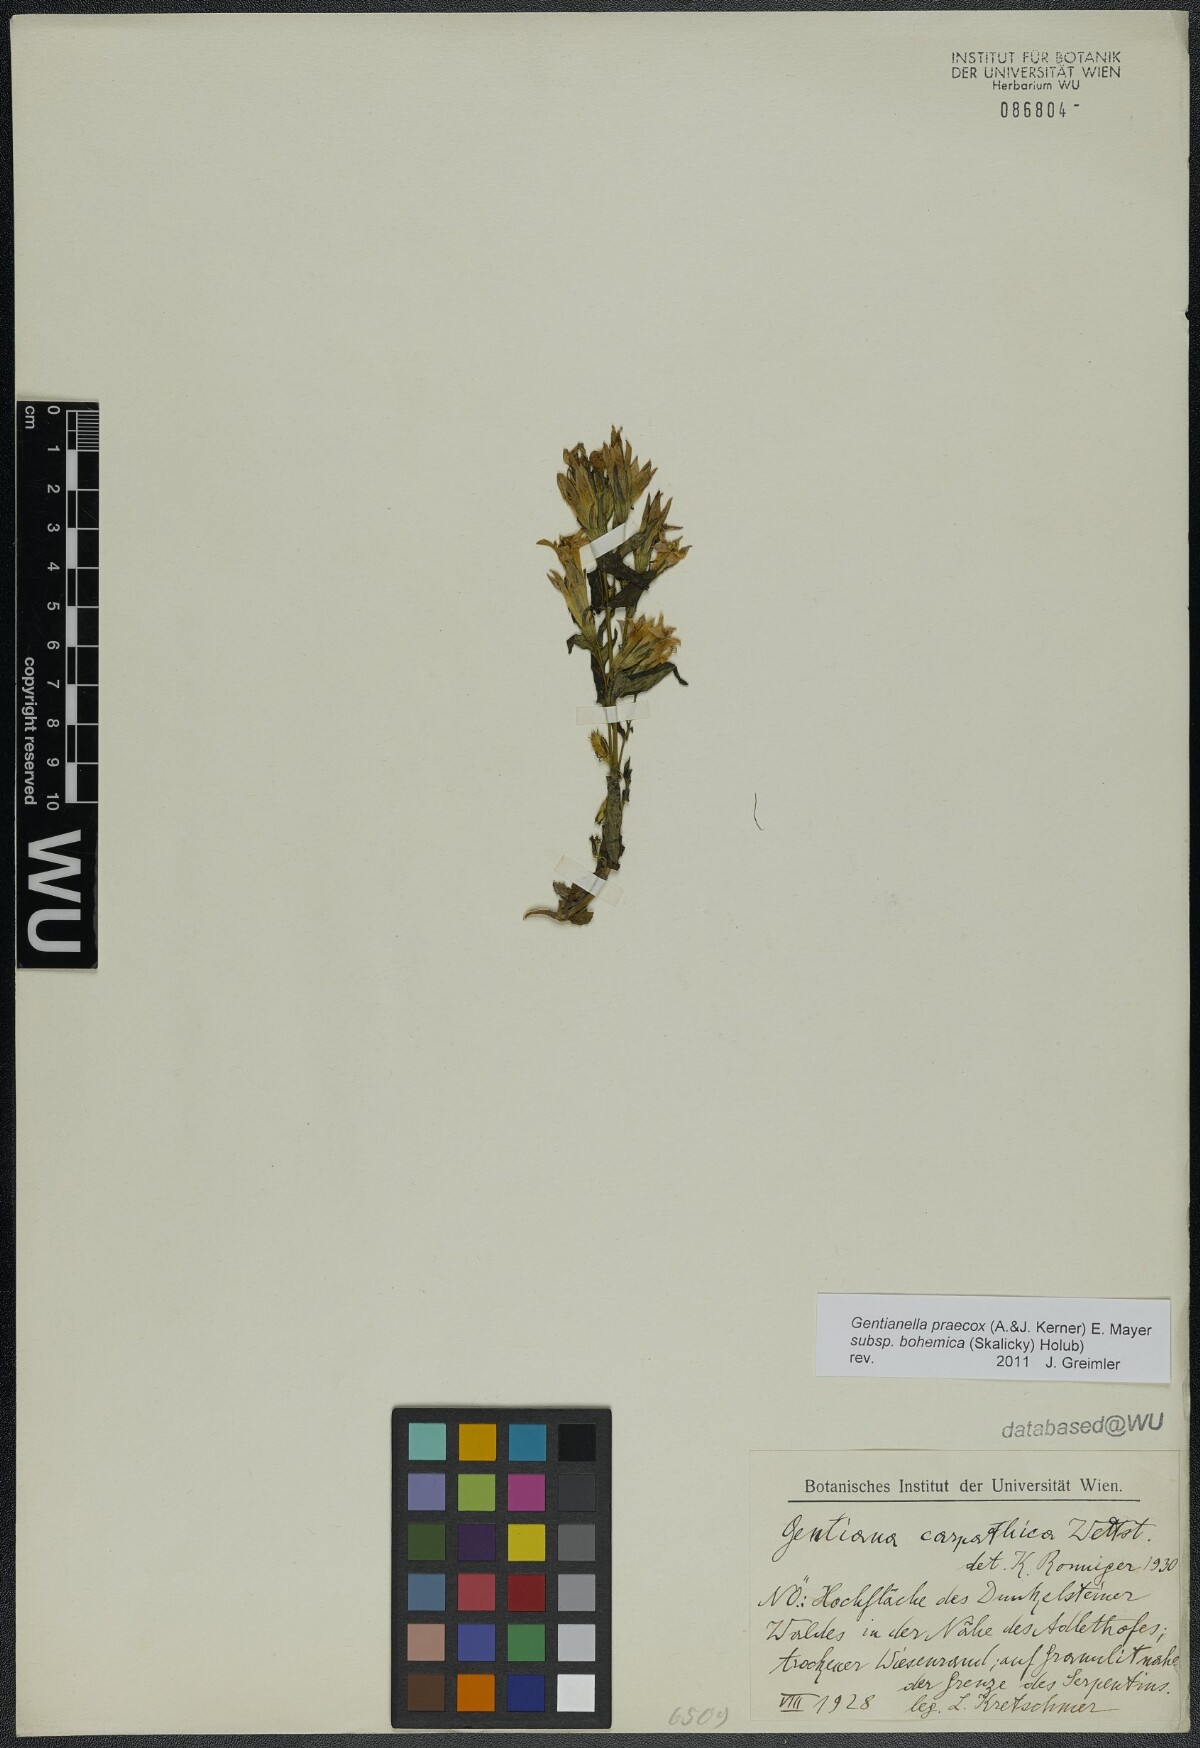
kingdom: Plantae
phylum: Tracheophyta
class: Magnoliopsida
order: Gentianales
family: Gentianaceae
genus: Gentianella
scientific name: Gentianella praecox
